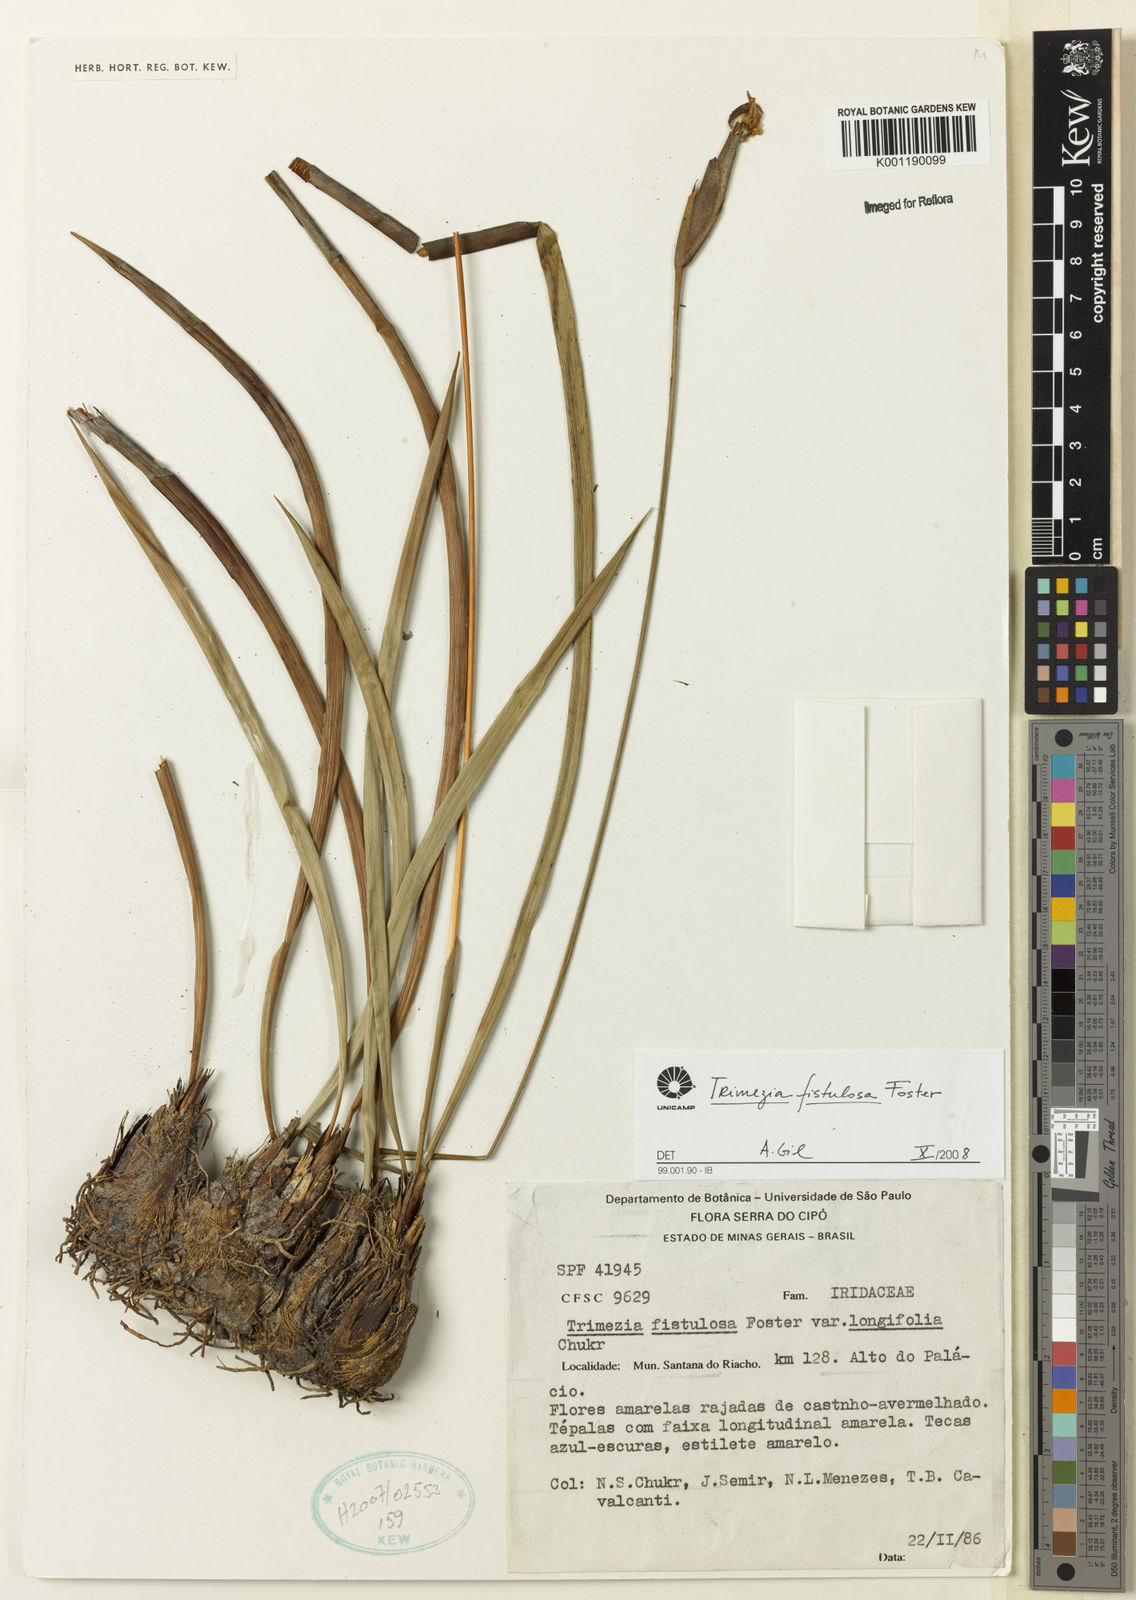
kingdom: Plantae
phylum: Tracheophyta
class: Liliopsida
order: Asparagales
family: Iridaceae
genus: Trimezia
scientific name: Trimezia fistulosa
